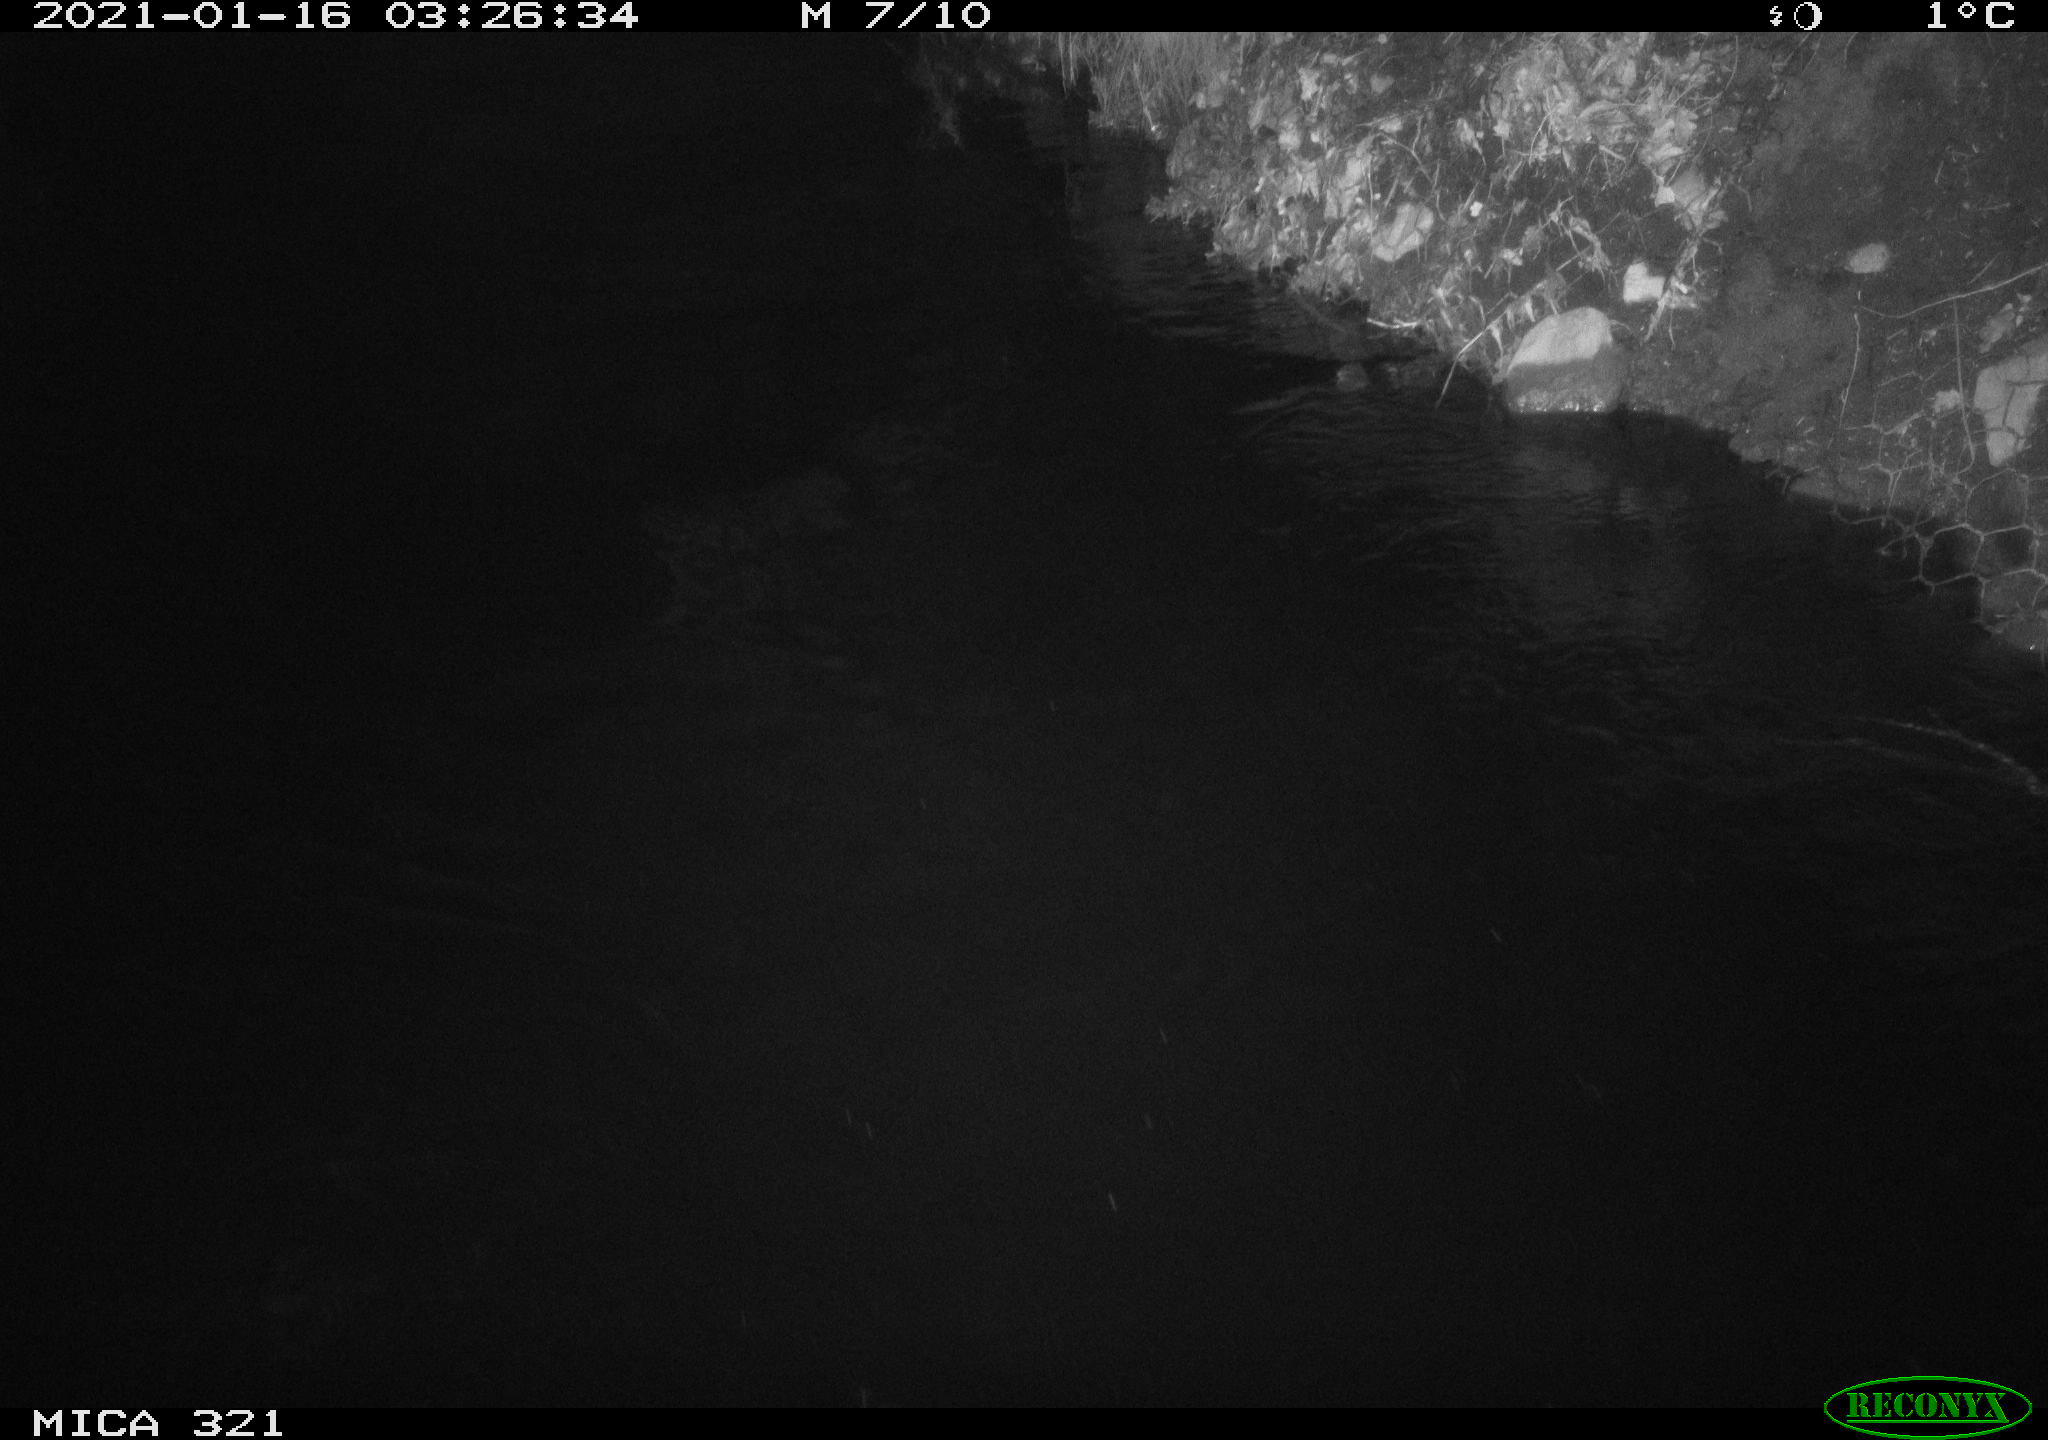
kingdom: Animalia
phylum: Chordata
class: Mammalia
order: Rodentia
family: Muridae
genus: Rattus
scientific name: Rattus norvegicus
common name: Brown rat
